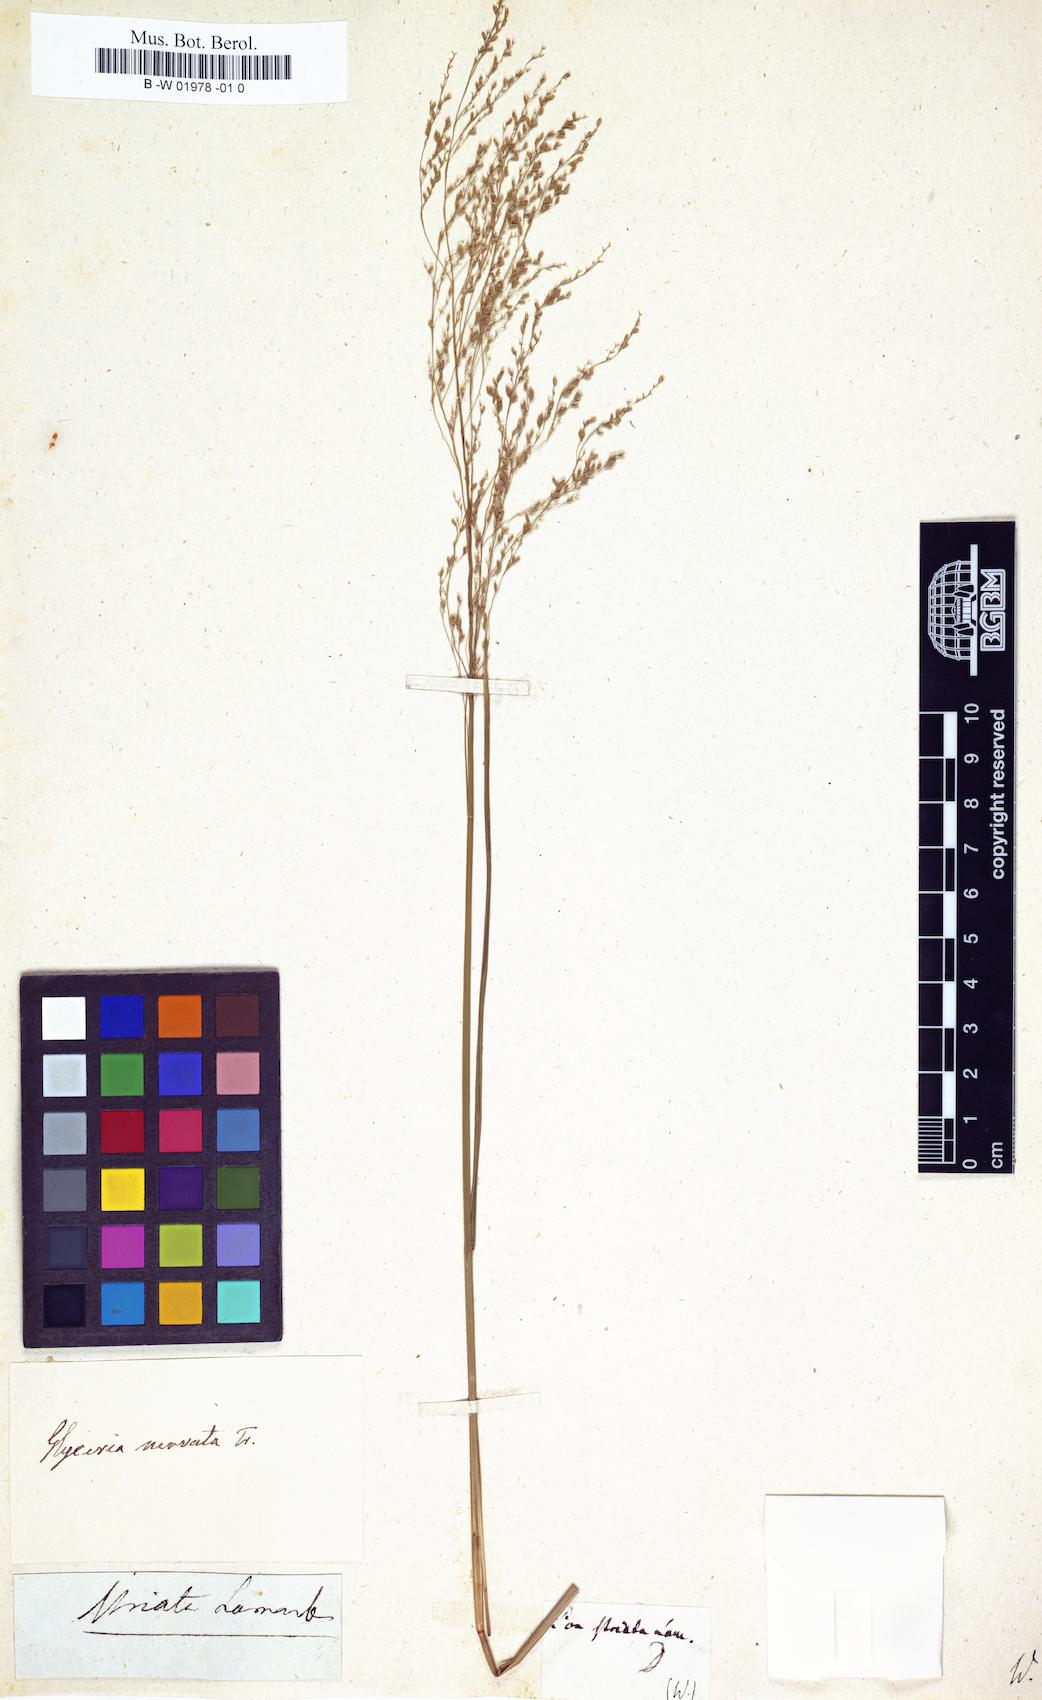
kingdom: Plantae
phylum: Tracheophyta
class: Liliopsida
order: Poales
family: Poaceae
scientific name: Poaceae
